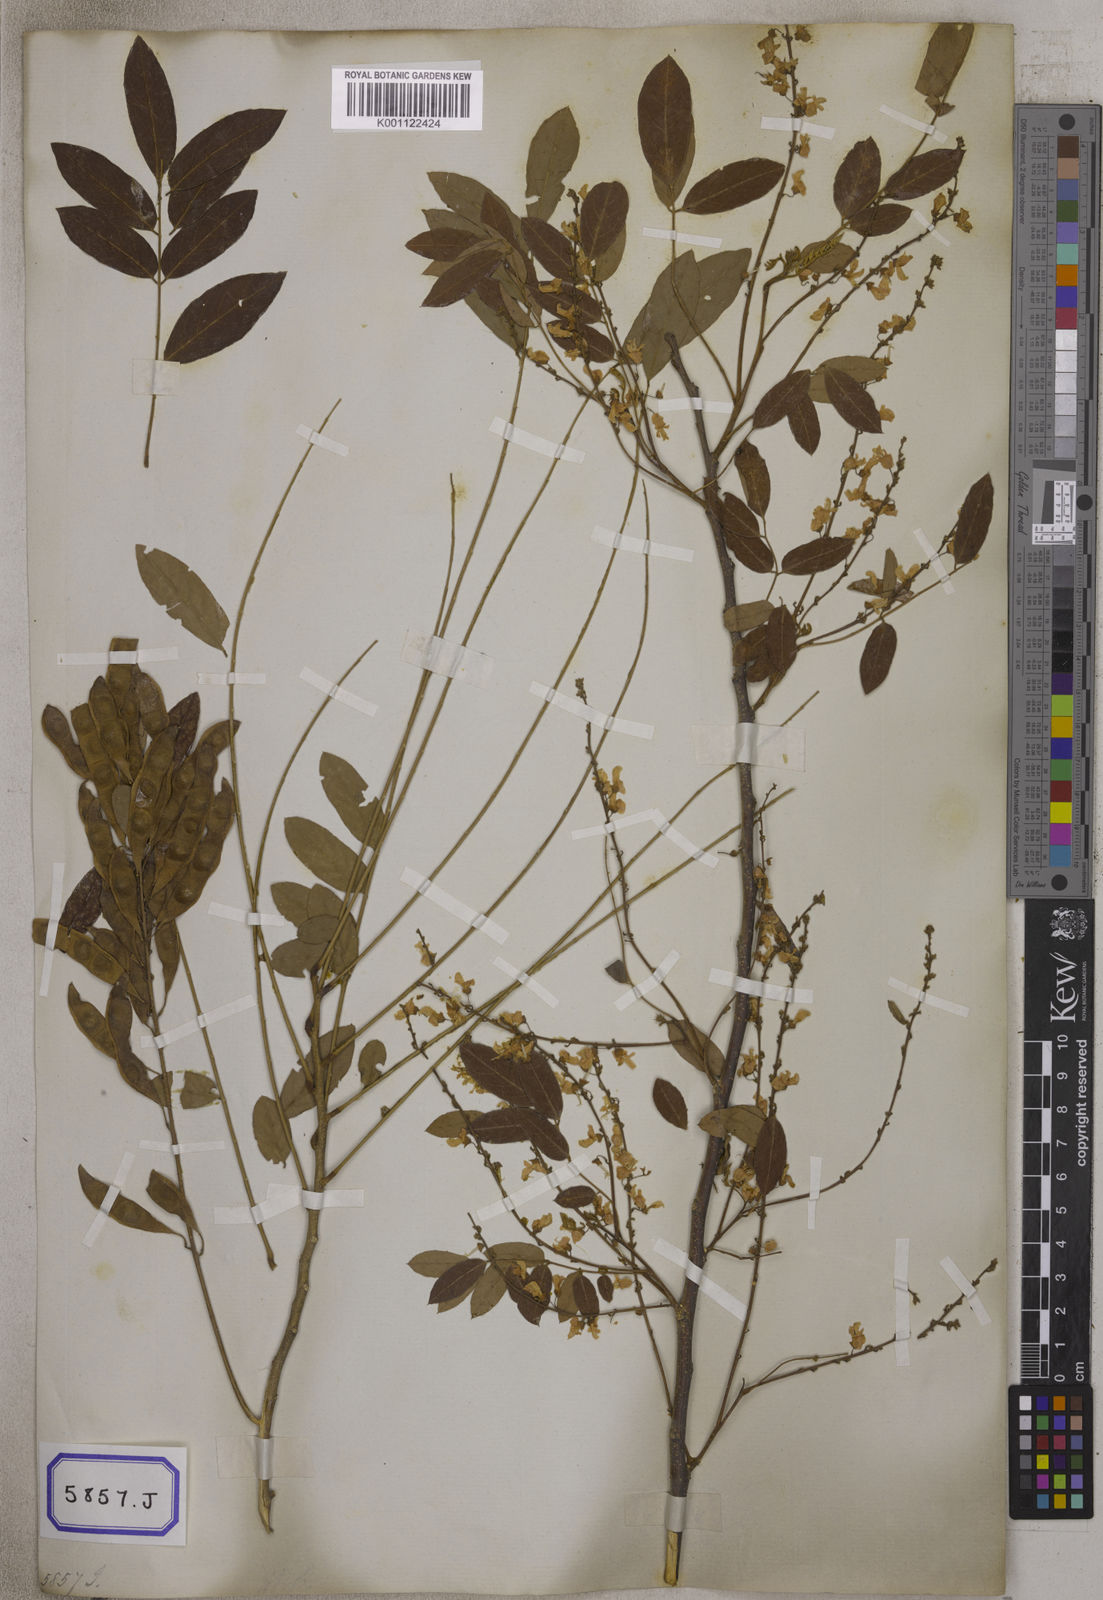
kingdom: Plantae
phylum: Tracheophyta
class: Magnoliopsida
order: Fabales
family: Fabaceae
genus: Brachypterum
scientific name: Brachypterum scandens
